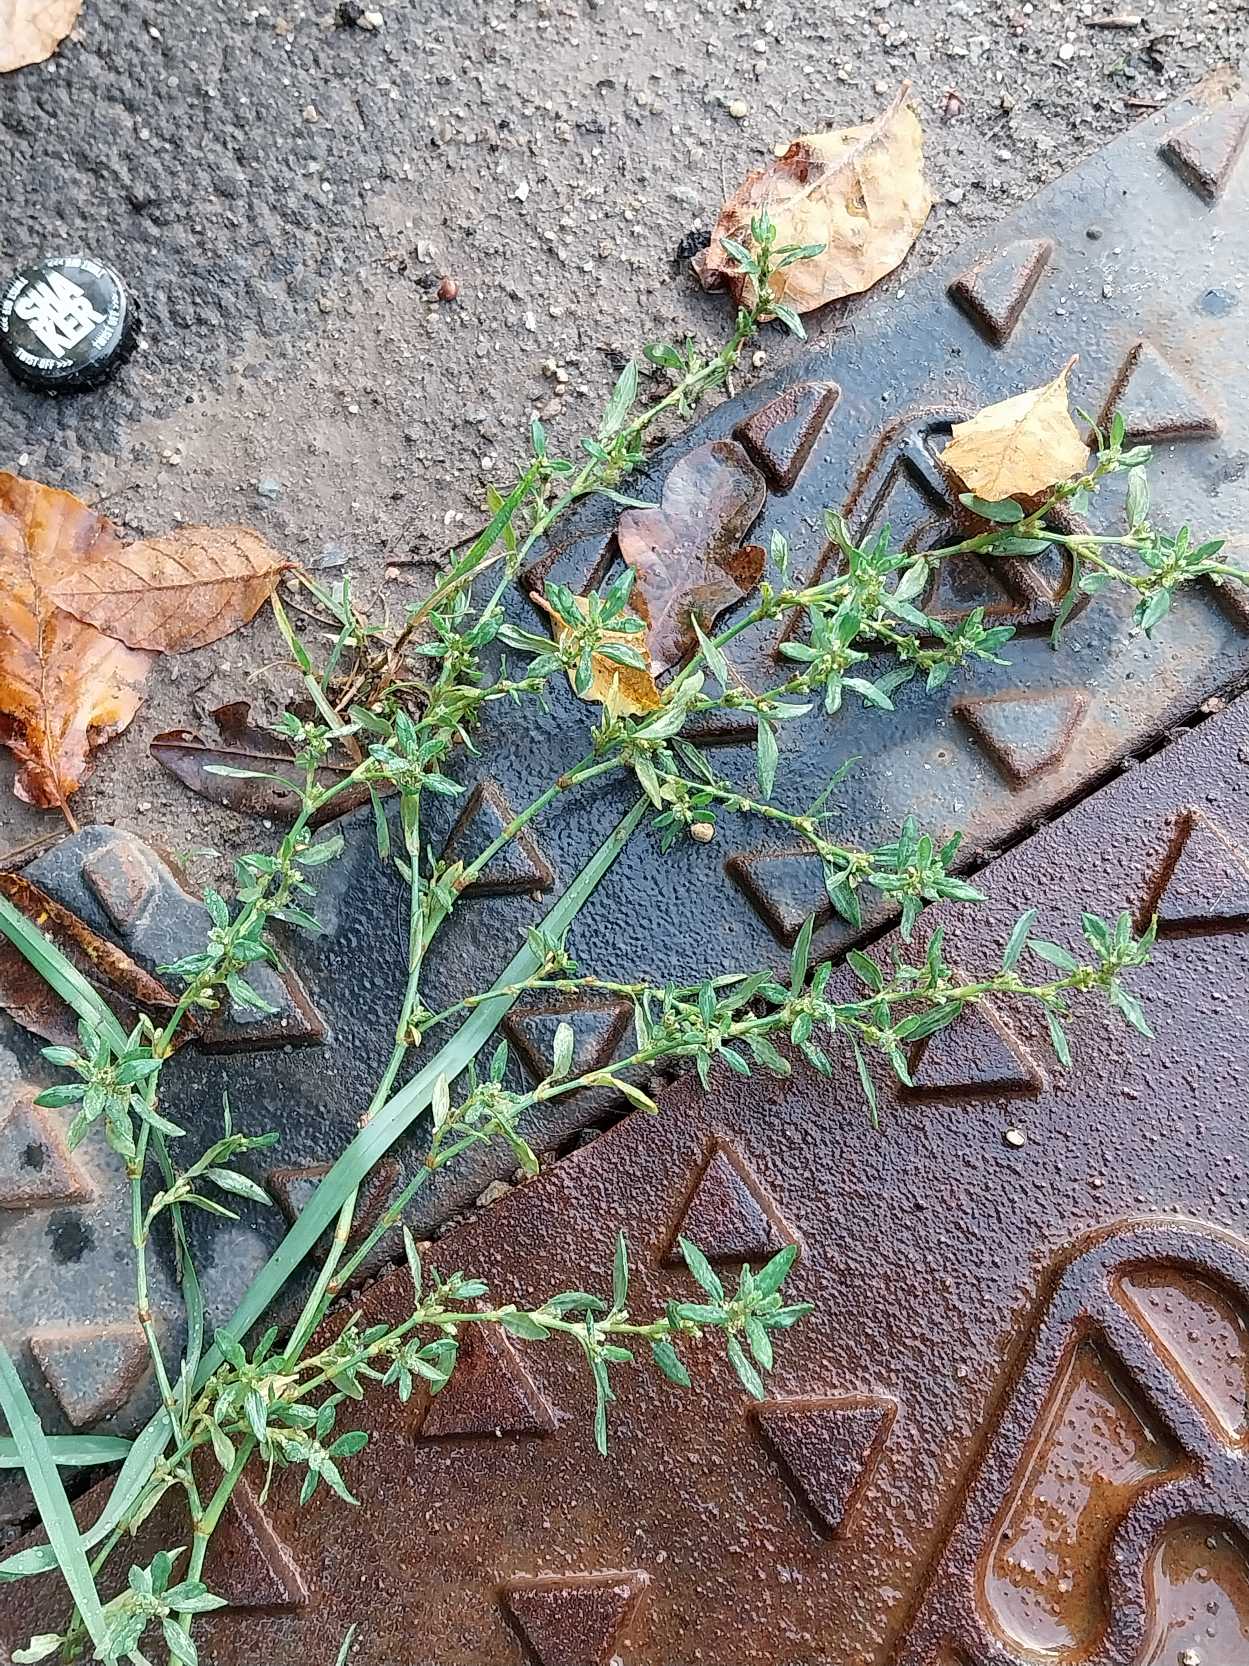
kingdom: Plantae
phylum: Tracheophyta
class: Magnoliopsida
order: Caryophyllales
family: Polygonaceae
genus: Polygonum
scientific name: Polygonum arenastrum
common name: Liggende vej-pileurt
